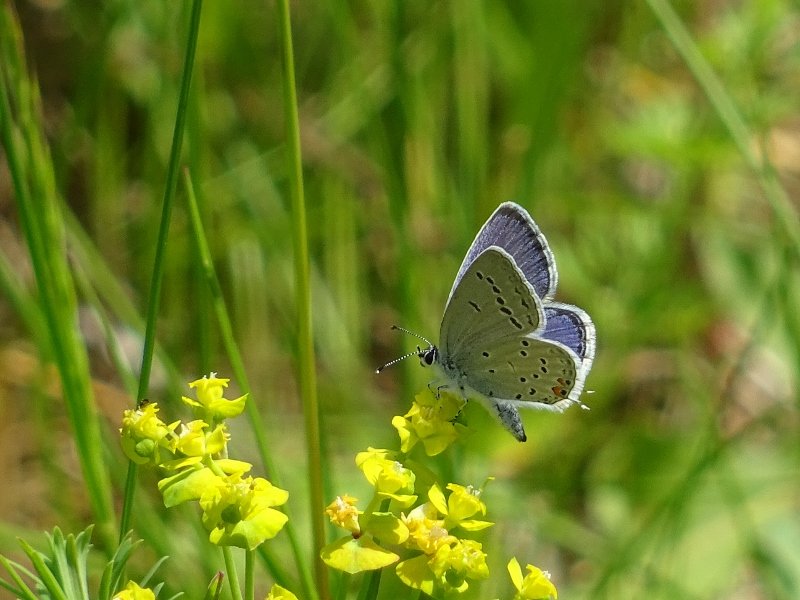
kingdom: Animalia
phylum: Arthropoda
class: Insecta
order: Lepidoptera
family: Lycaenidae
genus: Elkalyce
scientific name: Elkalyce comyntas
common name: Eastern Tailed-Blue
